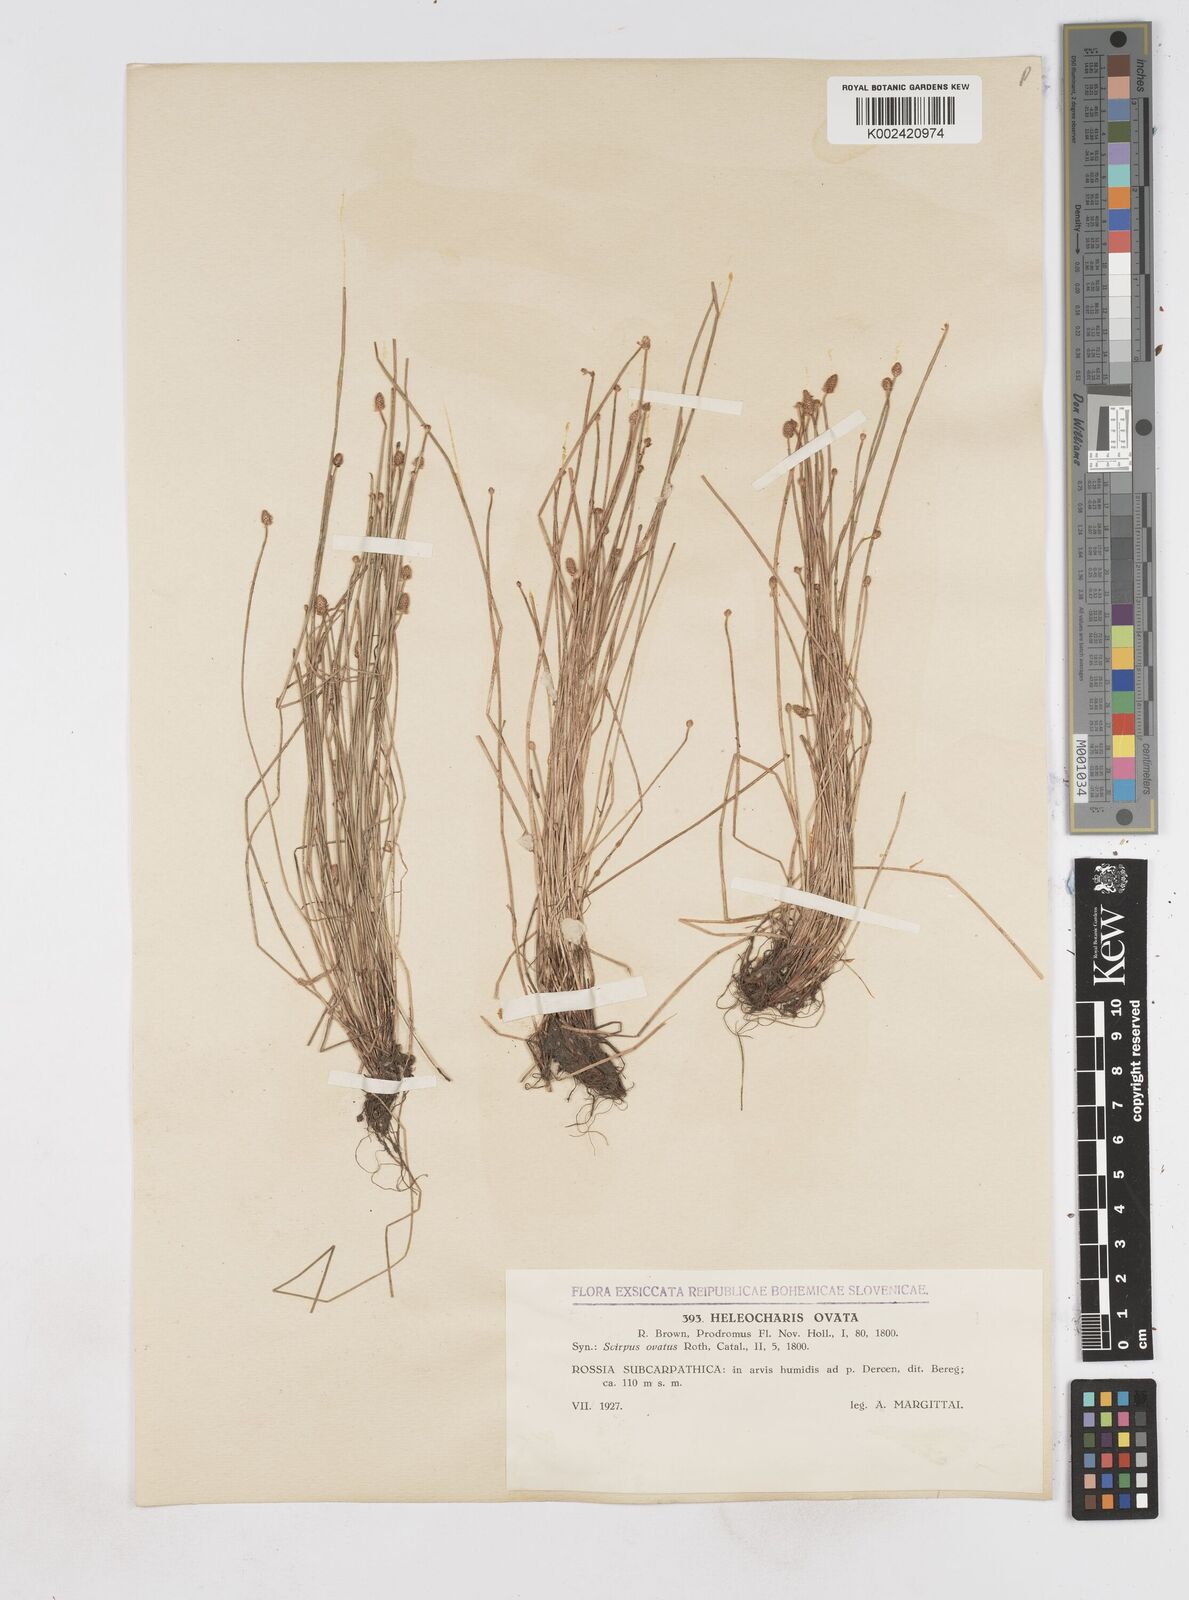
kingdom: Plantae
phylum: Tracheophyta
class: Liliopsida
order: Poales
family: Cyperaceae
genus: Eleocharis
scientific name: Eleocharis ovata
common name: Oval spike-rush
